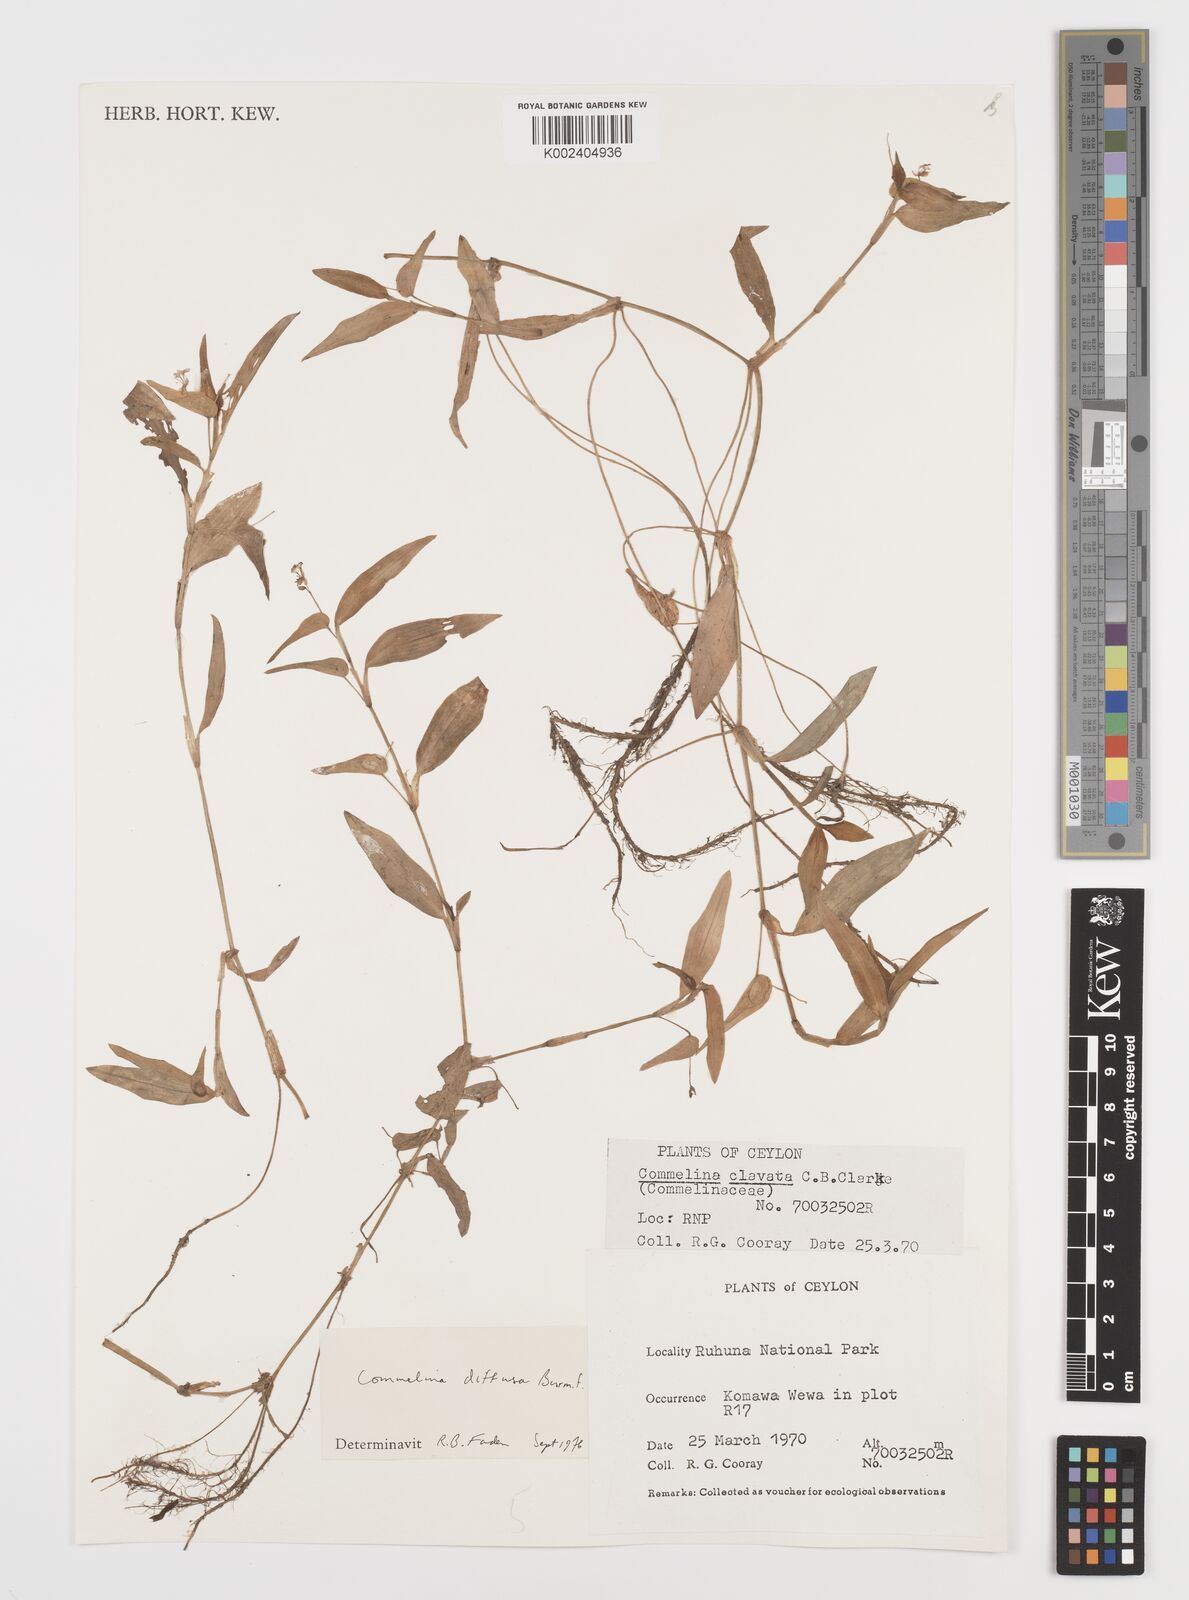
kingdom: Plantae
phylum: Tracheophyta
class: Liliopsida
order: Commelinales
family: Commelinaceae
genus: Murdannia
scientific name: Murdannia nudiflora
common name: Nakedstem dewflower
